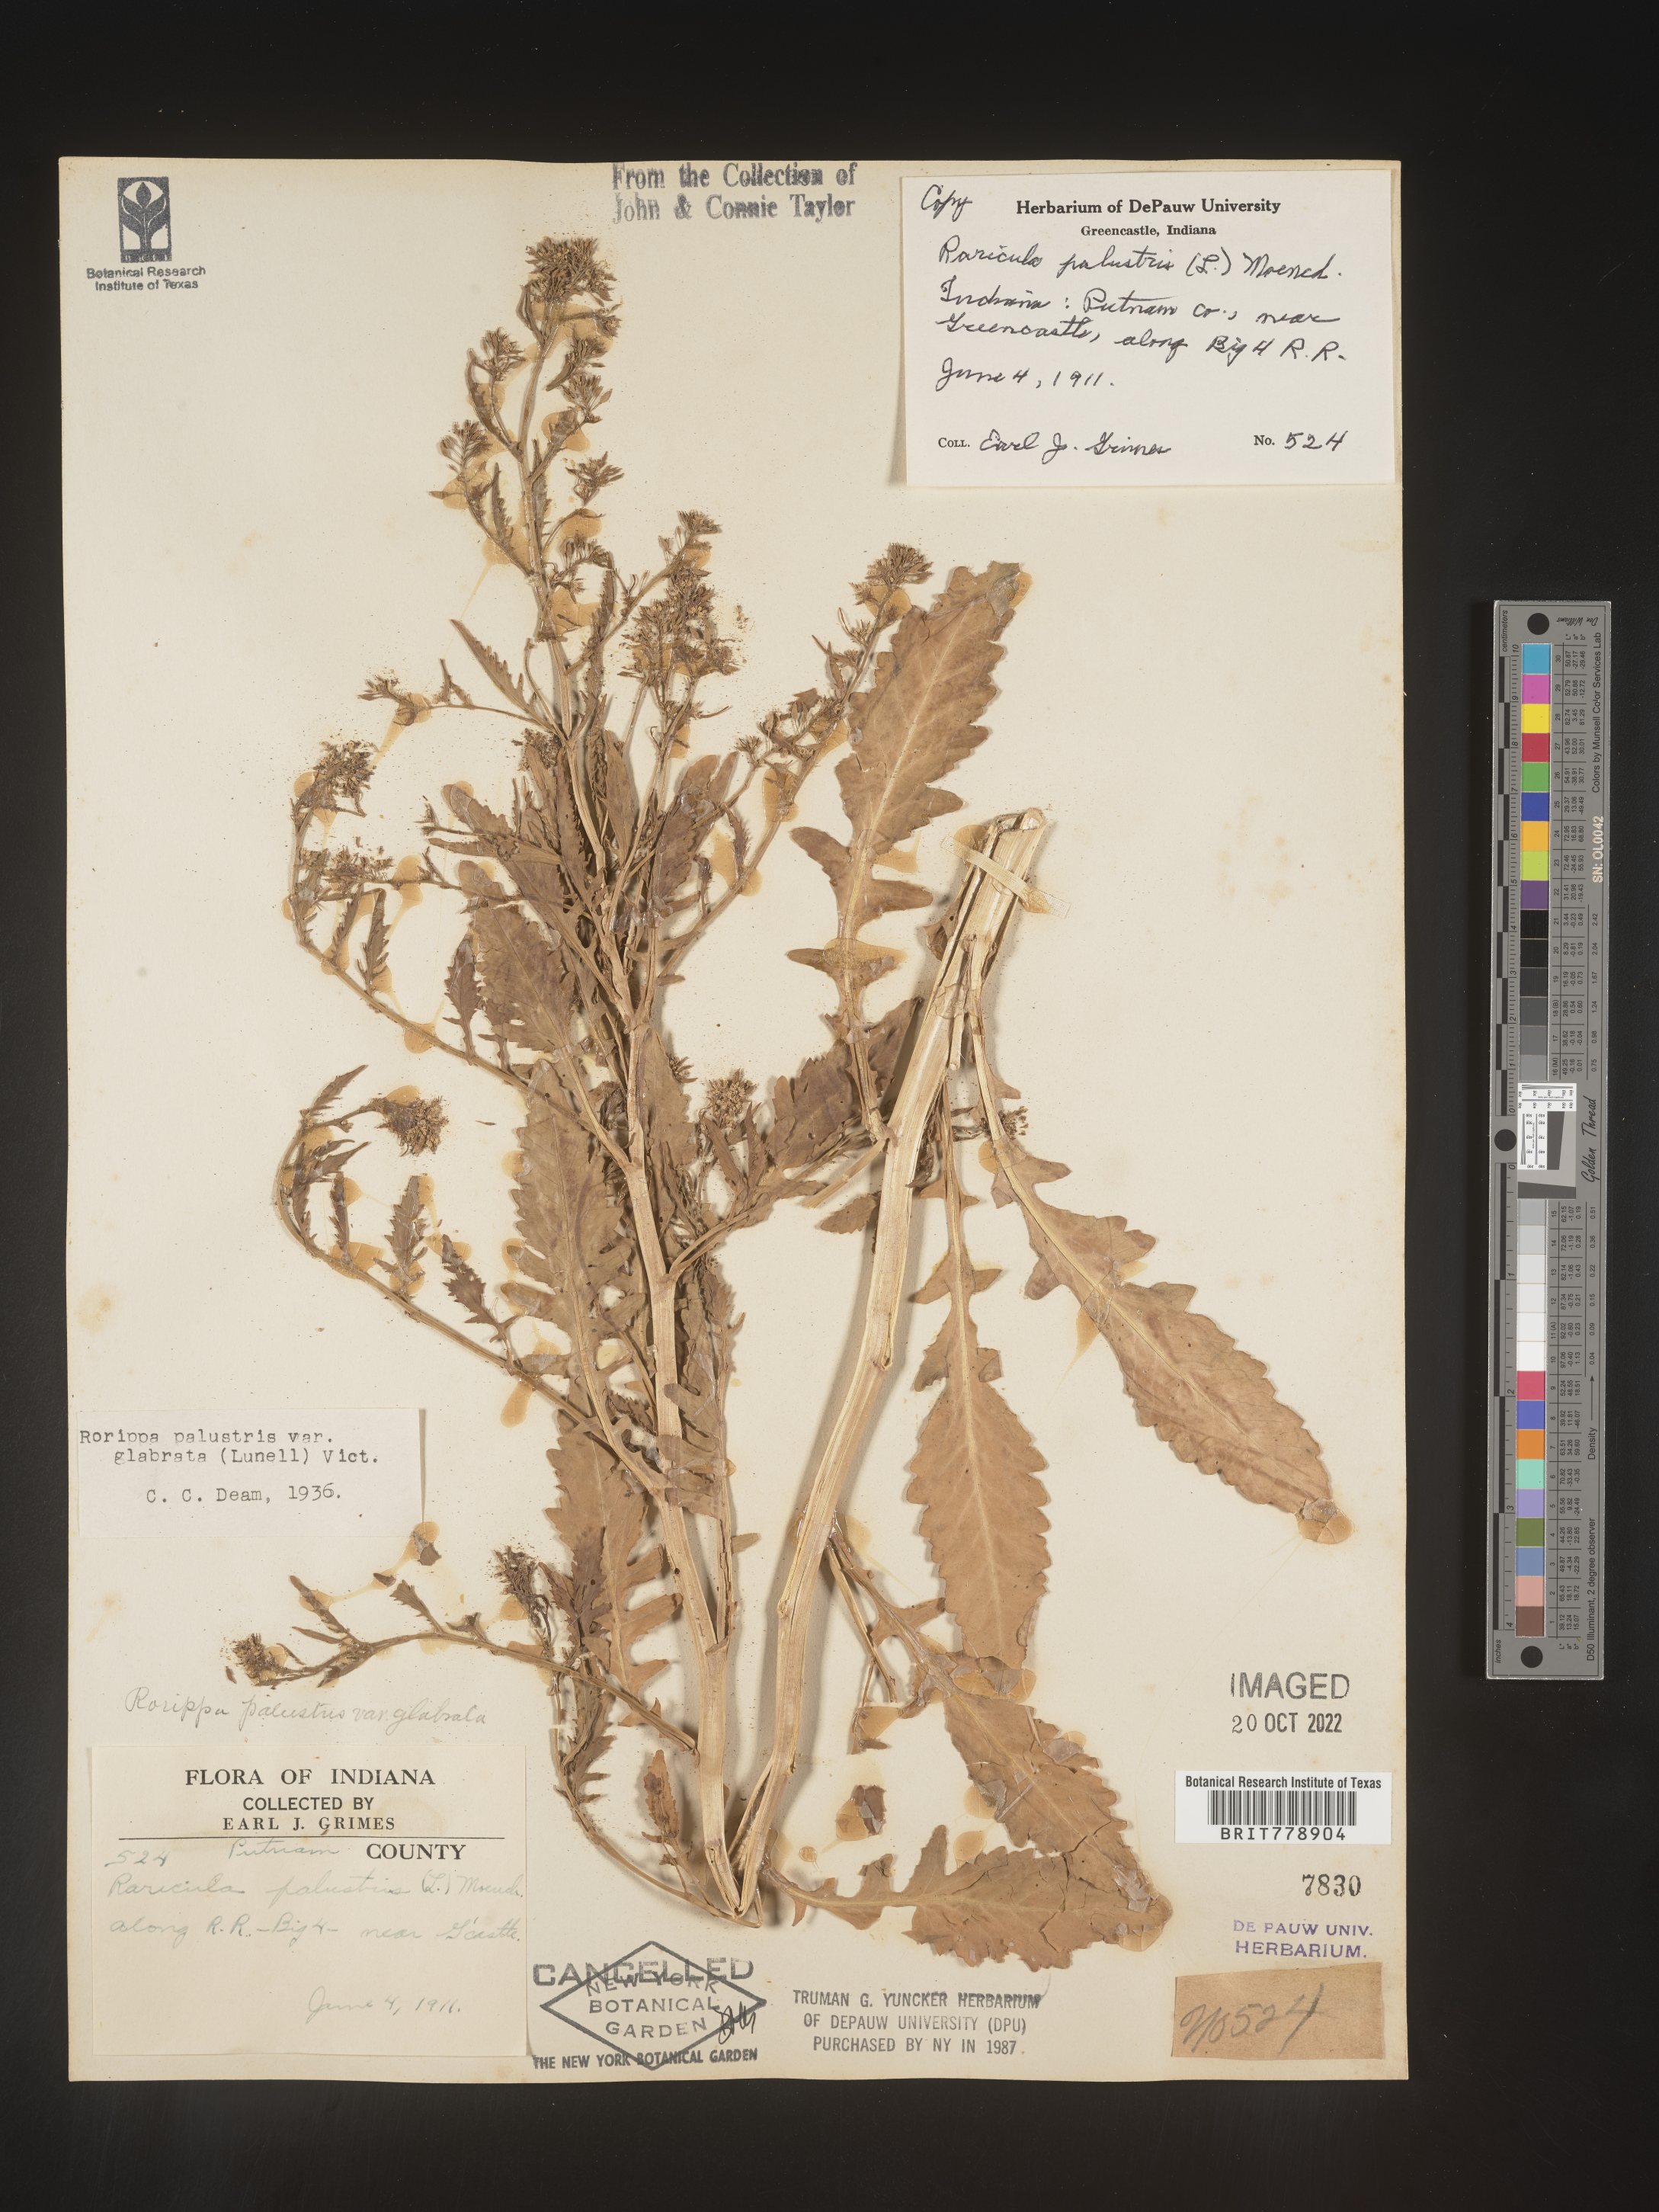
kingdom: Plantae
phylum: Tracheophyta
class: Magnoliopsida
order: Brassicales
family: Brassicaceae
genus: Rorippa
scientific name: Rorippa palustris
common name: Marsh yellow-cress
